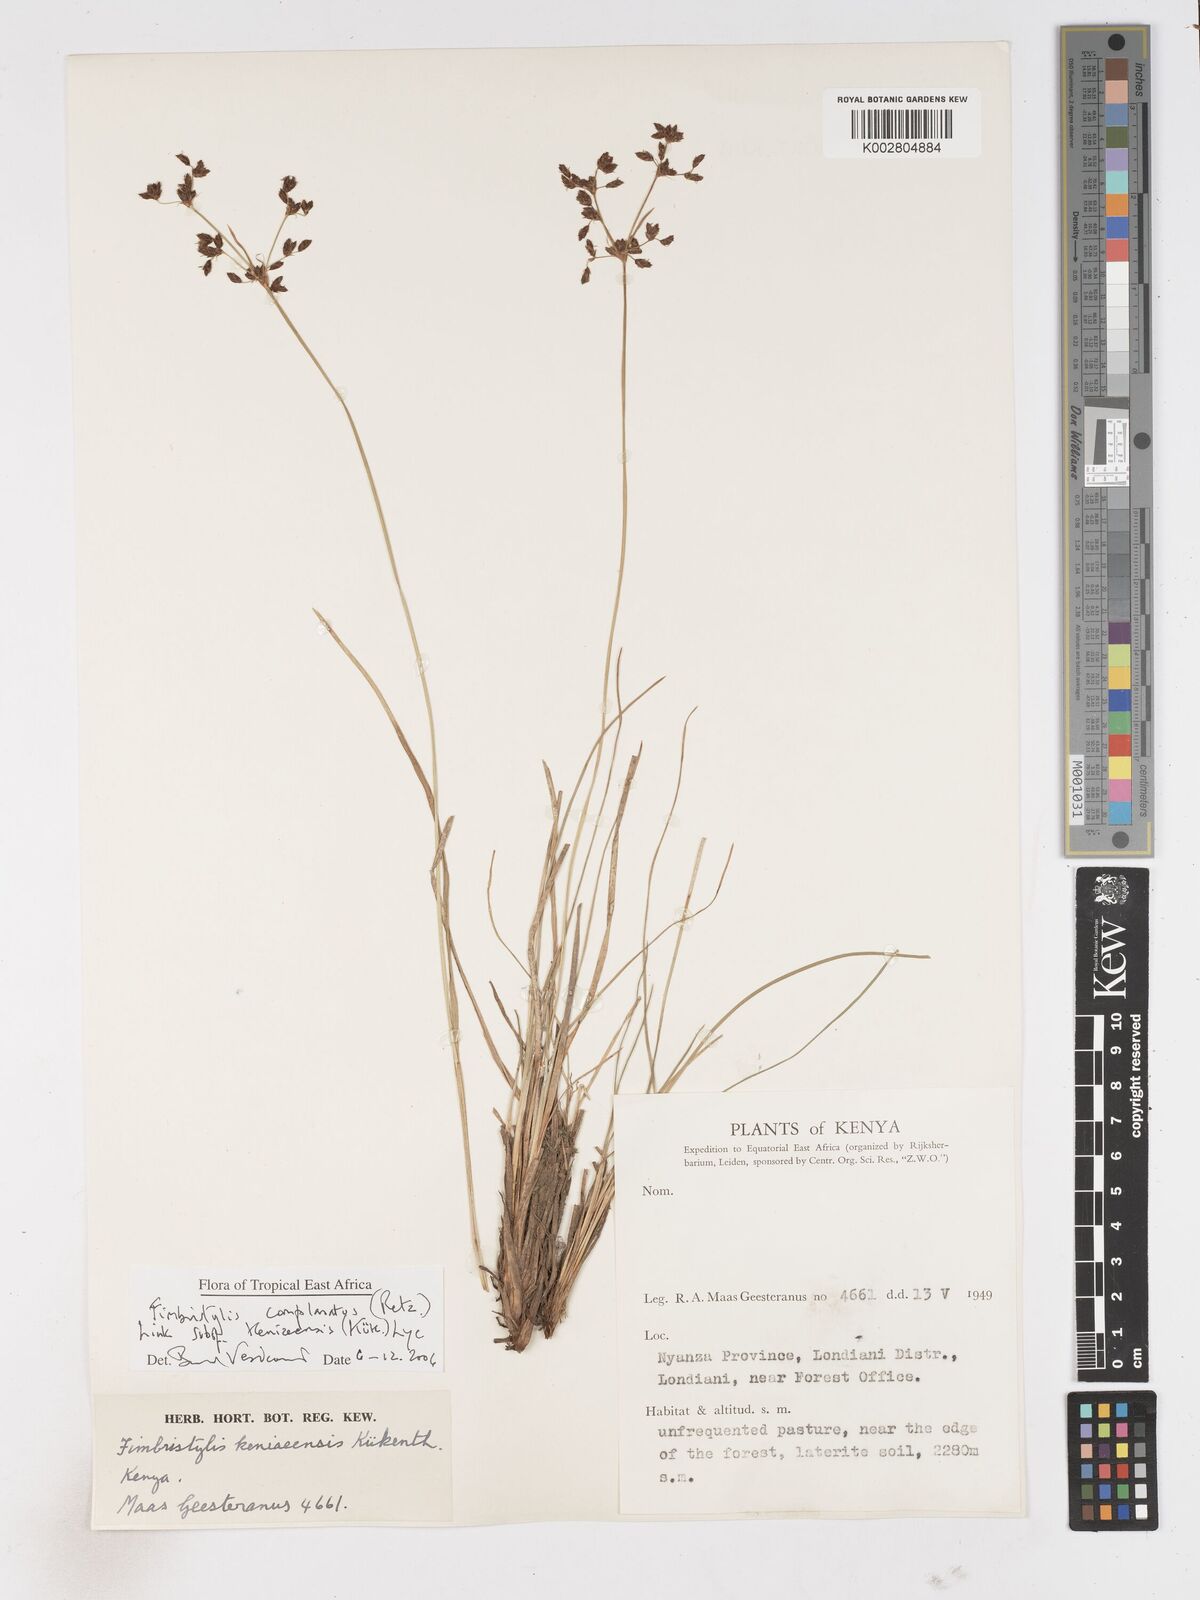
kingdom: Plantae
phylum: Tracheophyta
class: Liliopsida
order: Poales
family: Cyperaceae
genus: Fimbristylis
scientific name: Fimbristylis complanata
